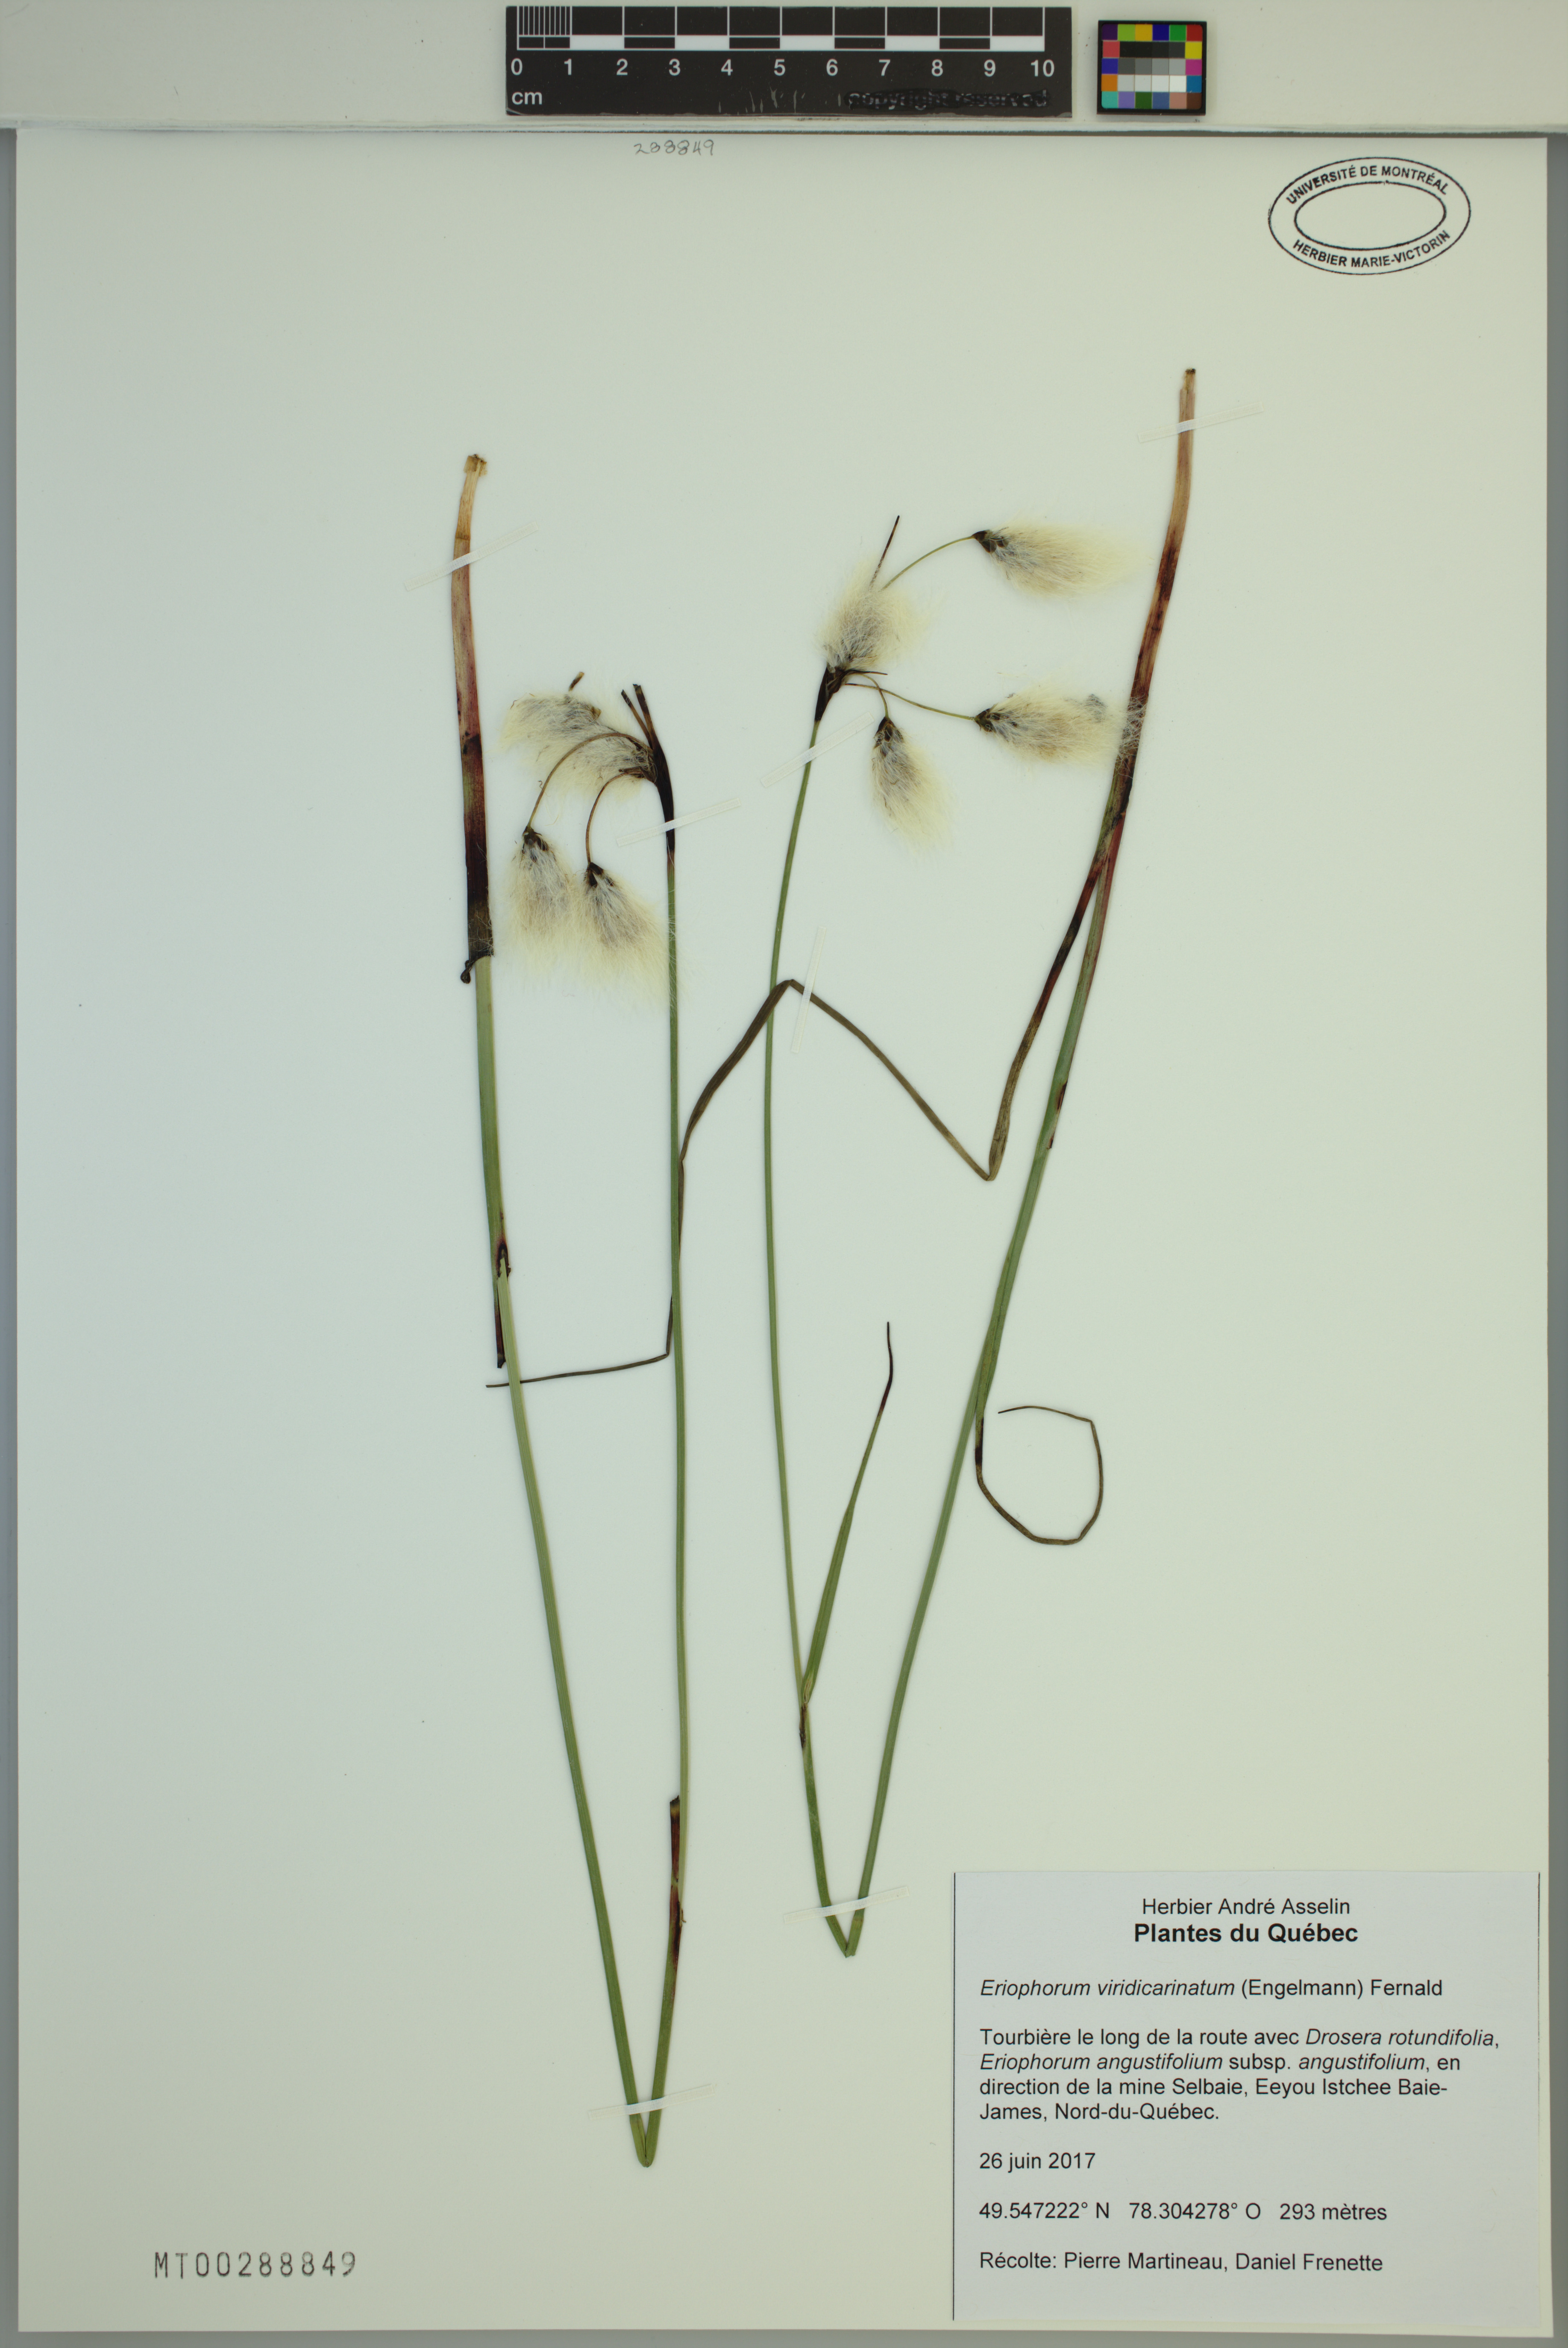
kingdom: Plantae
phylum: Tracheophyta
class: Liliopsida
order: Poales
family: Cyperaceae
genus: Eriophorum
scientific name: Eriophorum viridicarinatum
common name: Green-keeled cottongrass
